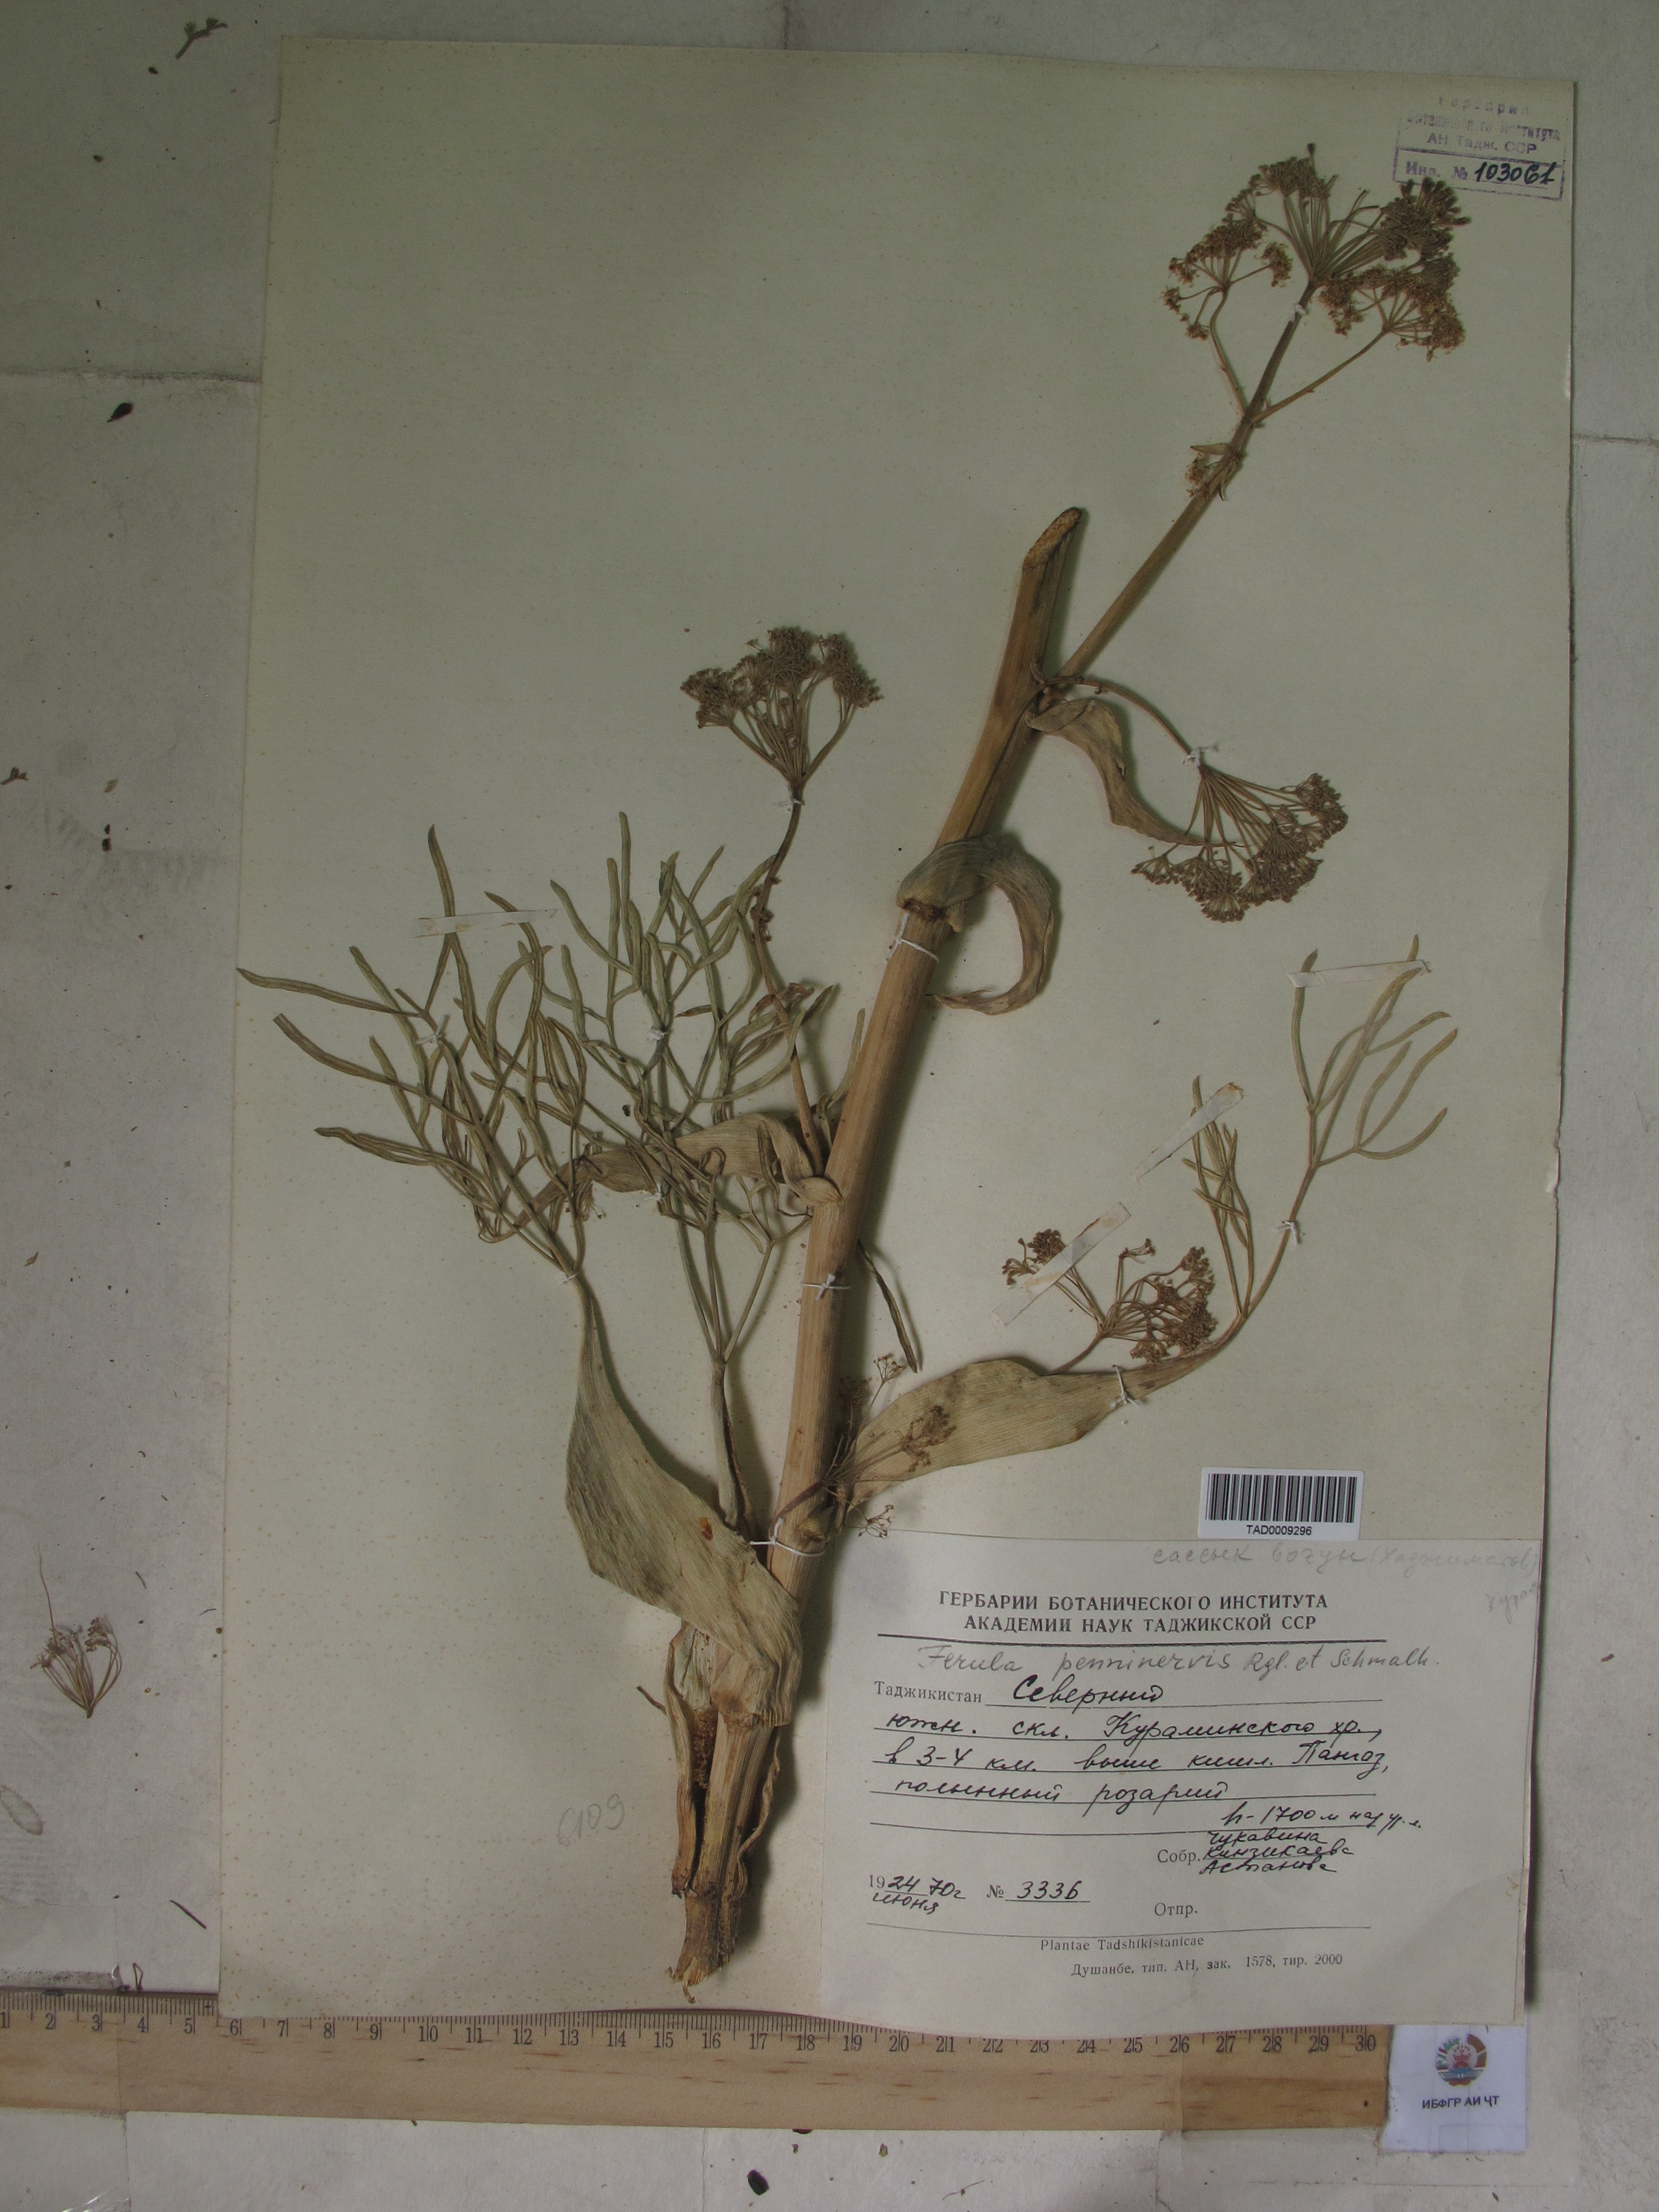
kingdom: Plantae
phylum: Tracheophyta
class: Magnoliopsida
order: Apiales
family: Apiaceae
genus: Ferula
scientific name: Ferula
